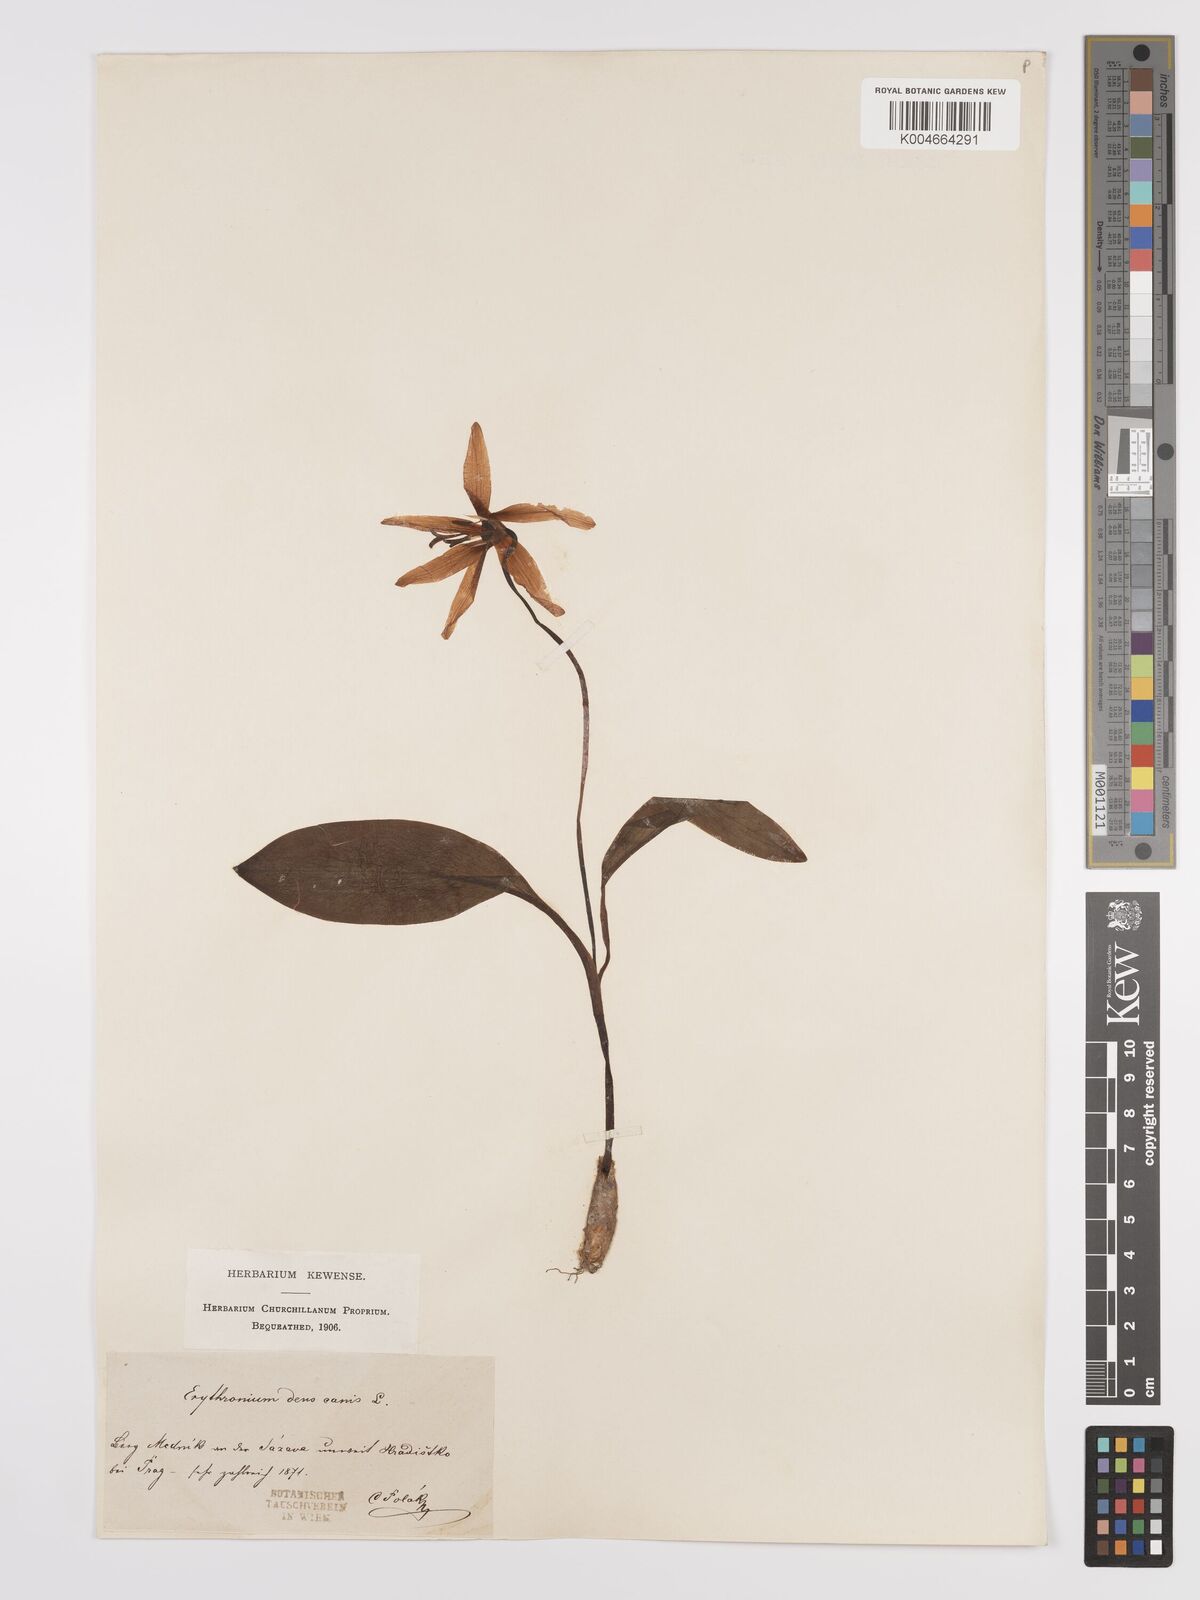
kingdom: Plantae
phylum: Tracheophyta
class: Liliopsida
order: Liliales
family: Liliaceae
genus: Erythronium
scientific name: Erythronium dens-canis
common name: Dog's-tooth-violet
